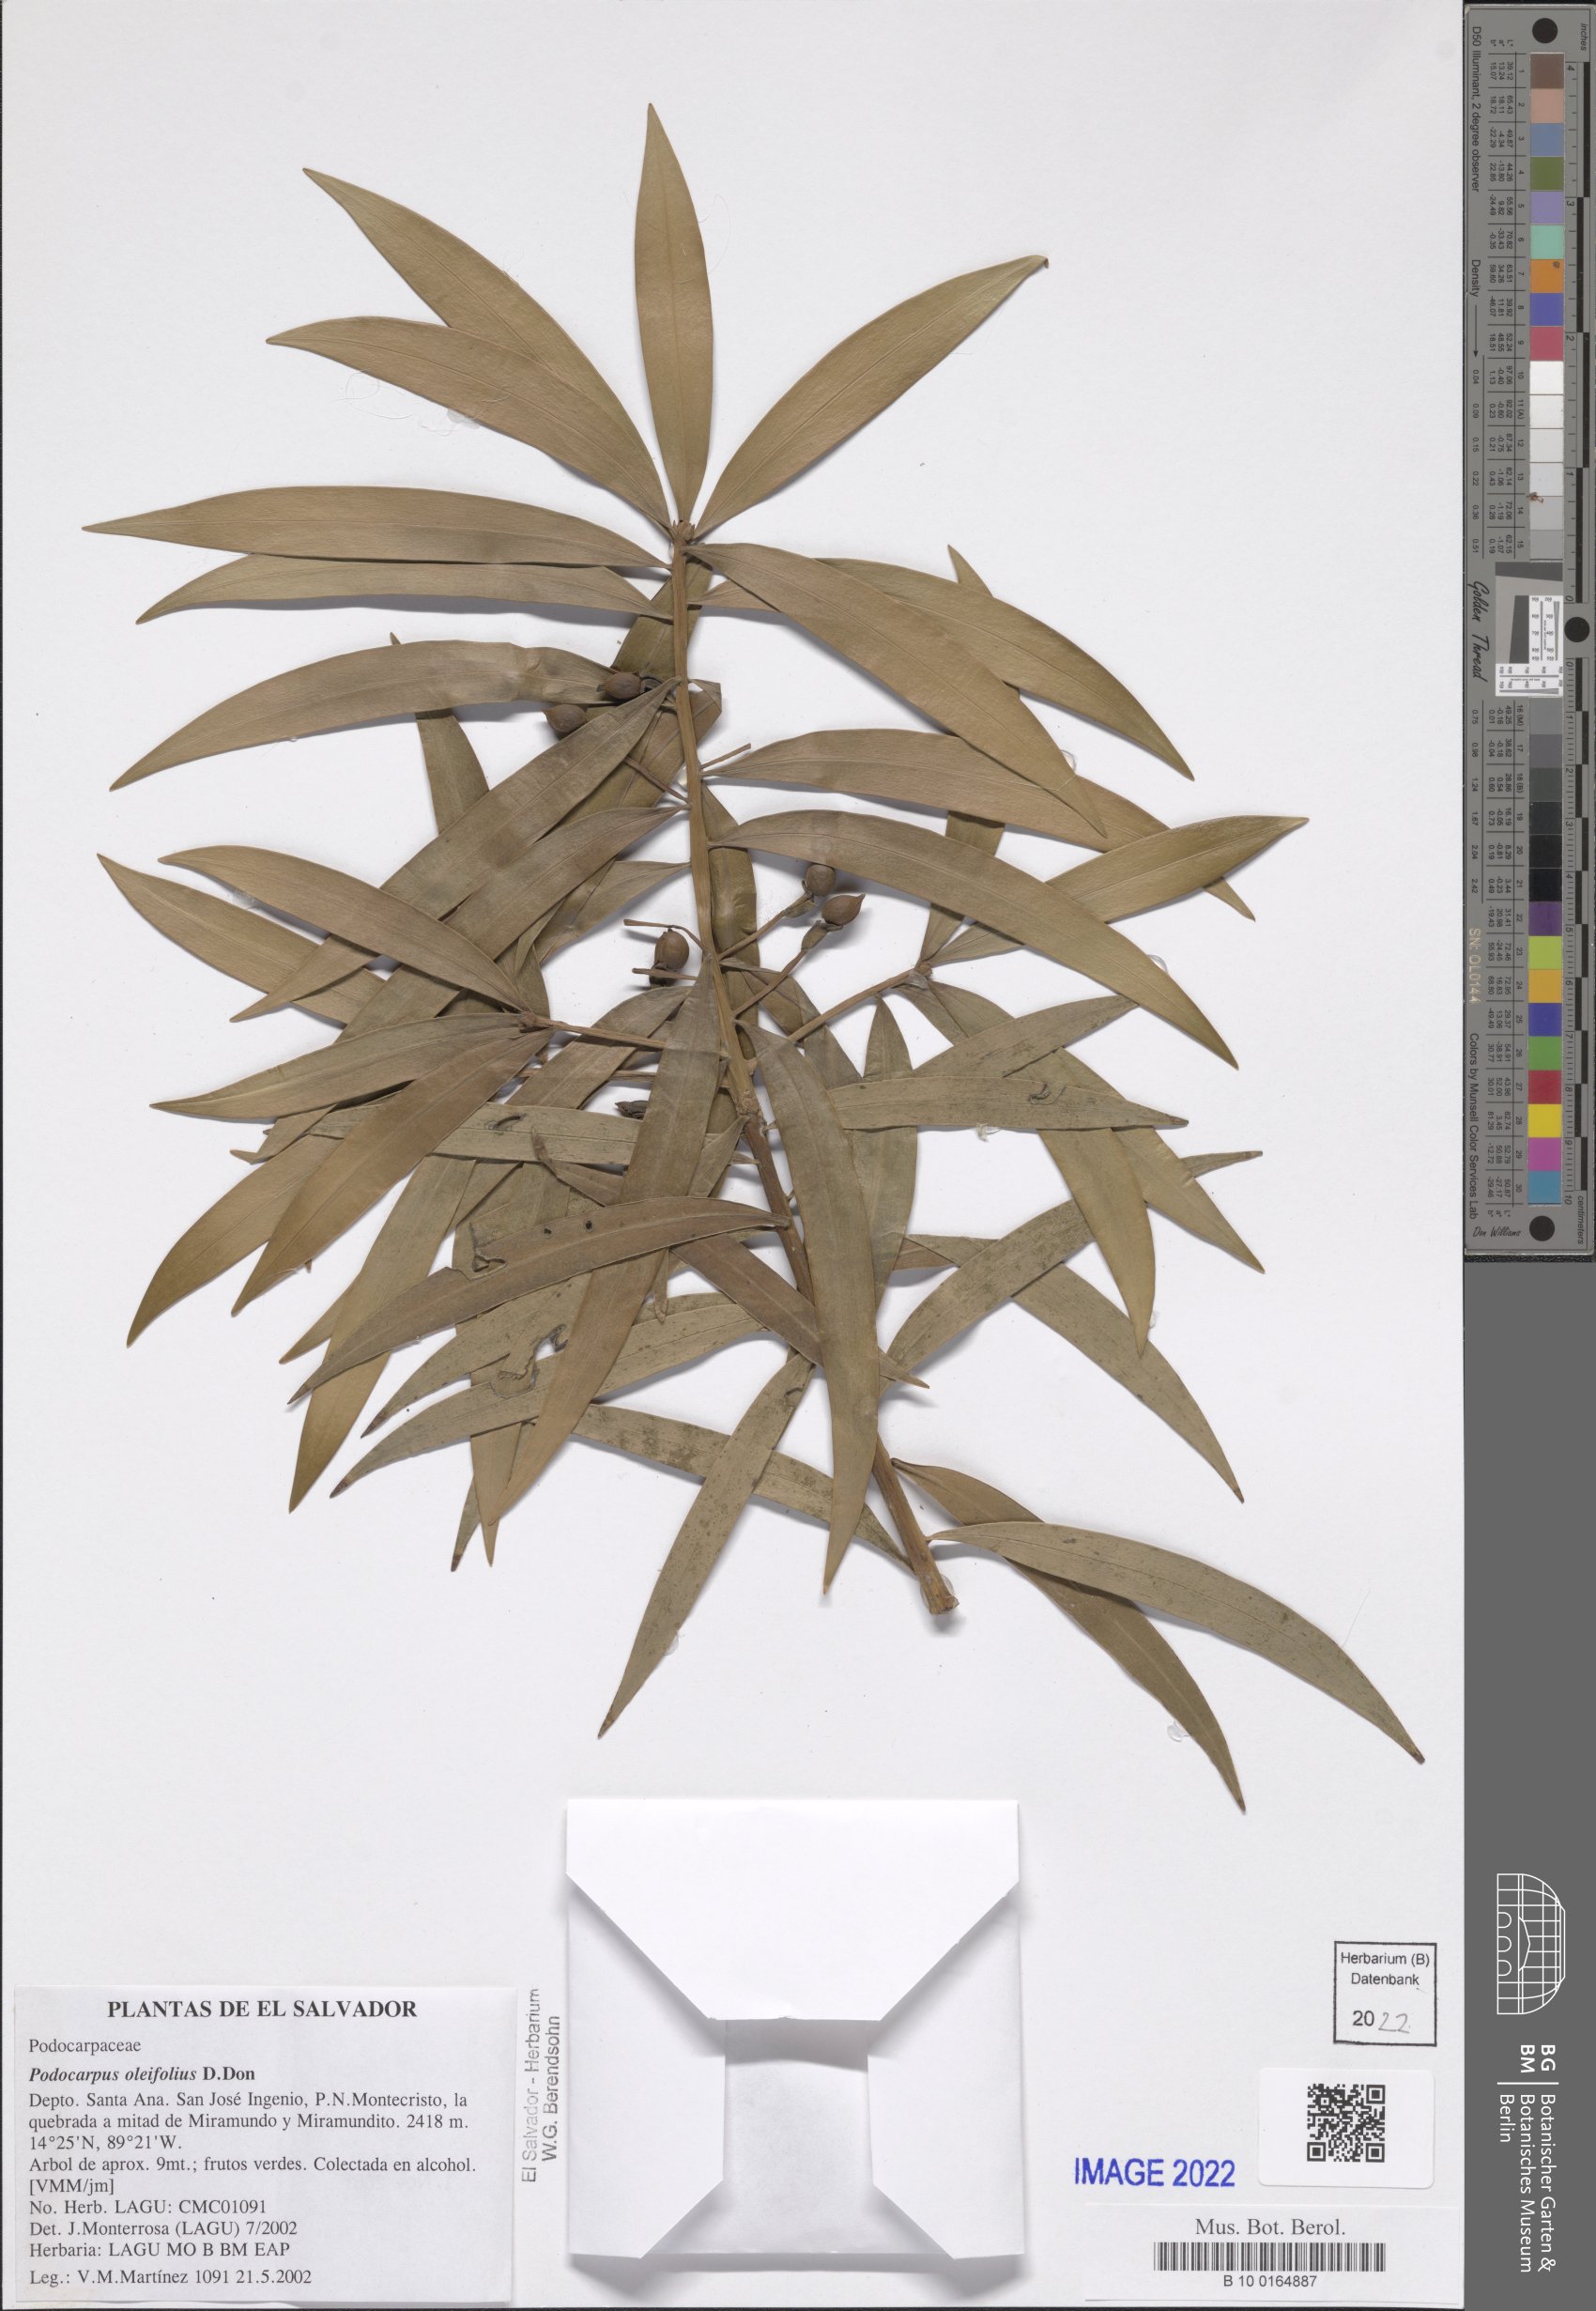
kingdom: Plantae
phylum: Tracheophyta
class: Pinopsida
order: Pinales
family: Podocarpaceae
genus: Podocarpus
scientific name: Podocarpus oleifolius
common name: Olive-leaf podoberry
